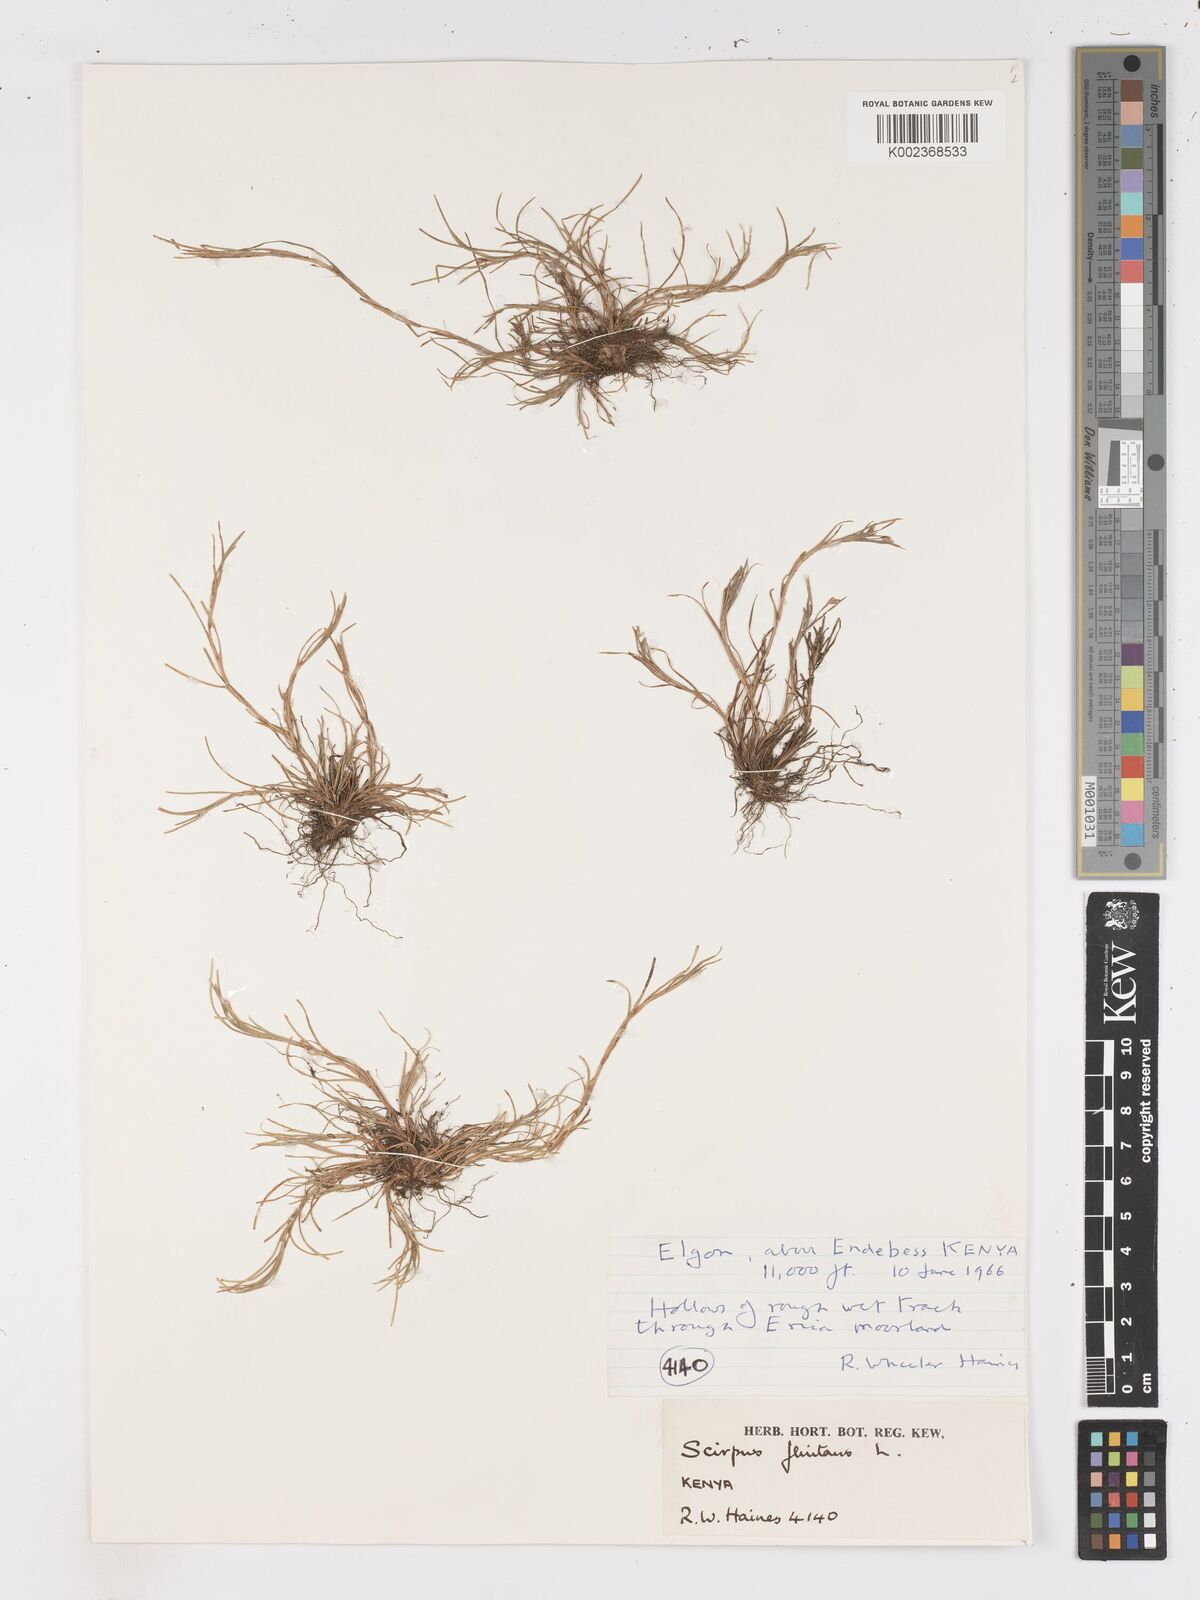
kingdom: Plantae
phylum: Tracheophyta
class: Liliopsida
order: Poales
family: Cyperaceae
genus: Isolepis
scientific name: Isolepis fluitans
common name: Floating club-rush
